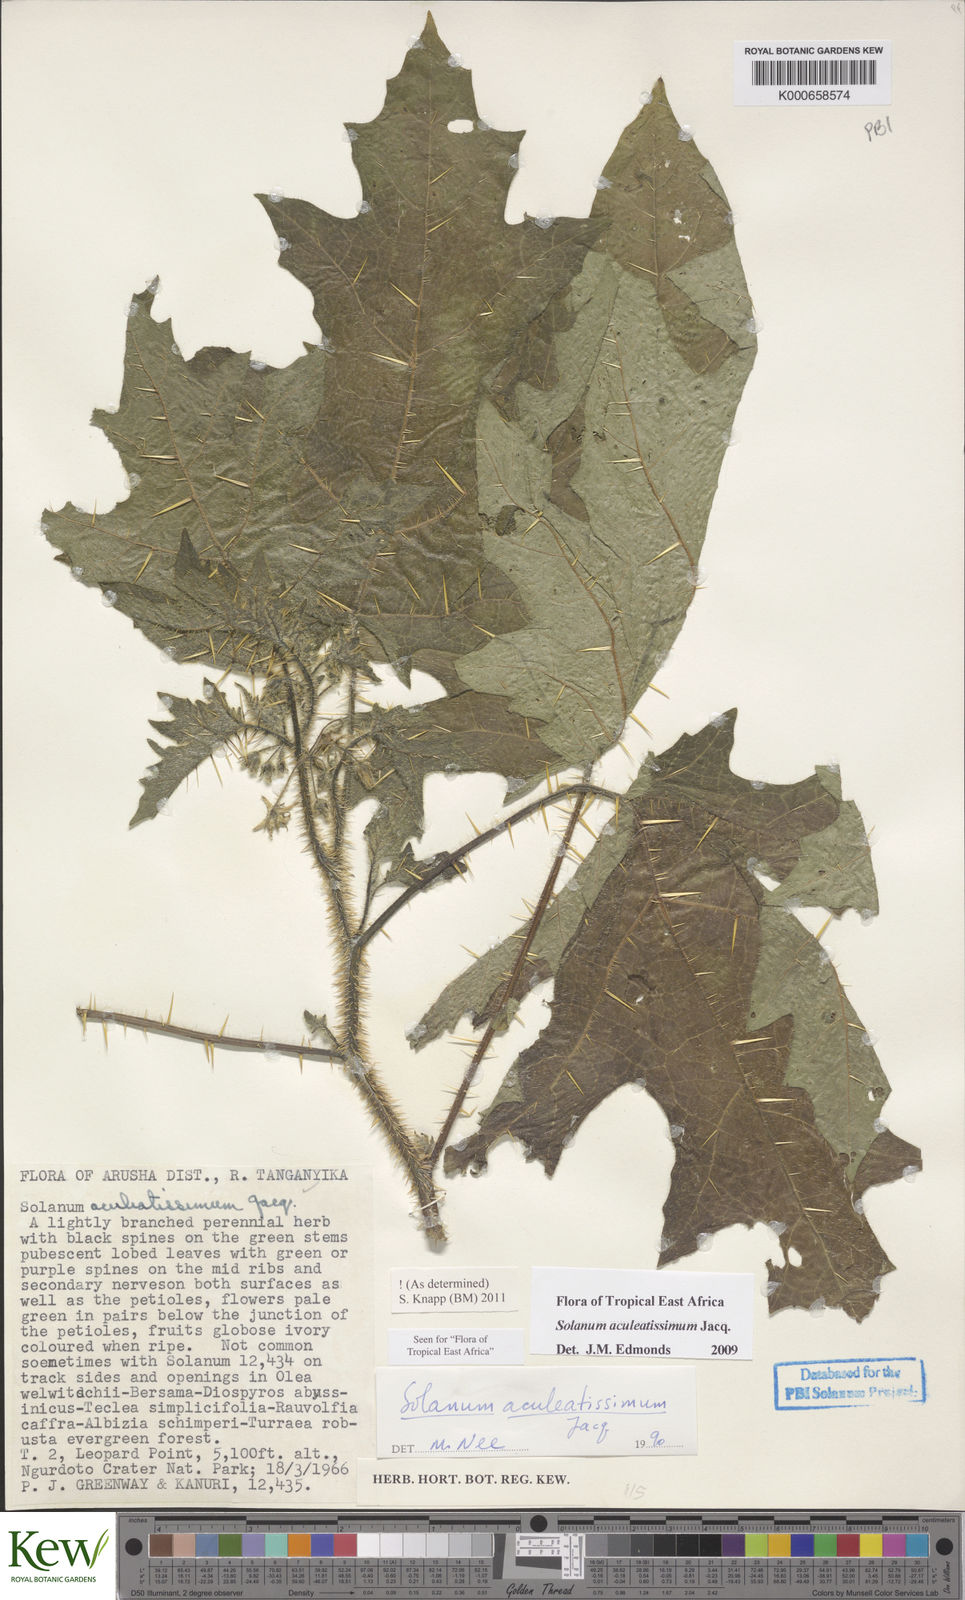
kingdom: Plantae
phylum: Tracheophyta
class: Magnoliopsida
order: Solanales
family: Solanaceae
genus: Solanum
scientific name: Solanum aculeatissimum
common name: Dutch eggplant
